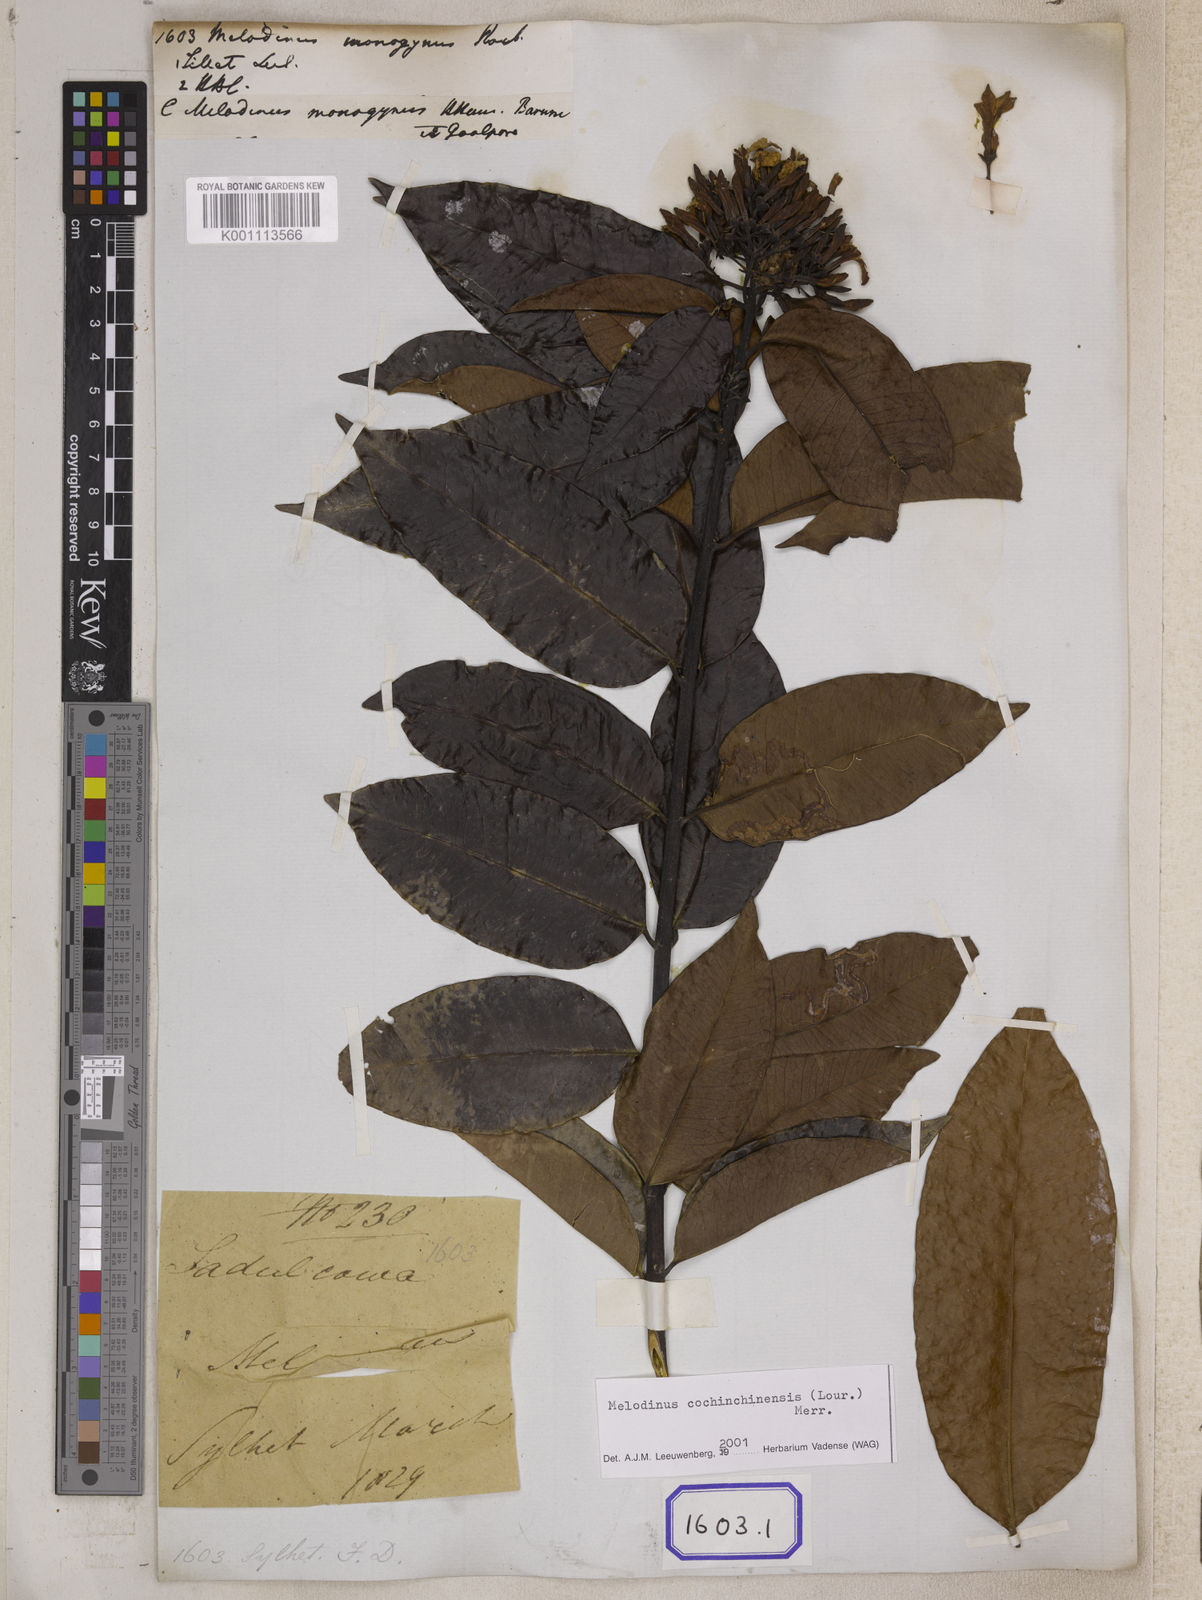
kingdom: Plantae
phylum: Tracheophyta
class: Magnoliopsida
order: Gentianales
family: Apocynaceae
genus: Melodinus
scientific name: Melodinus
